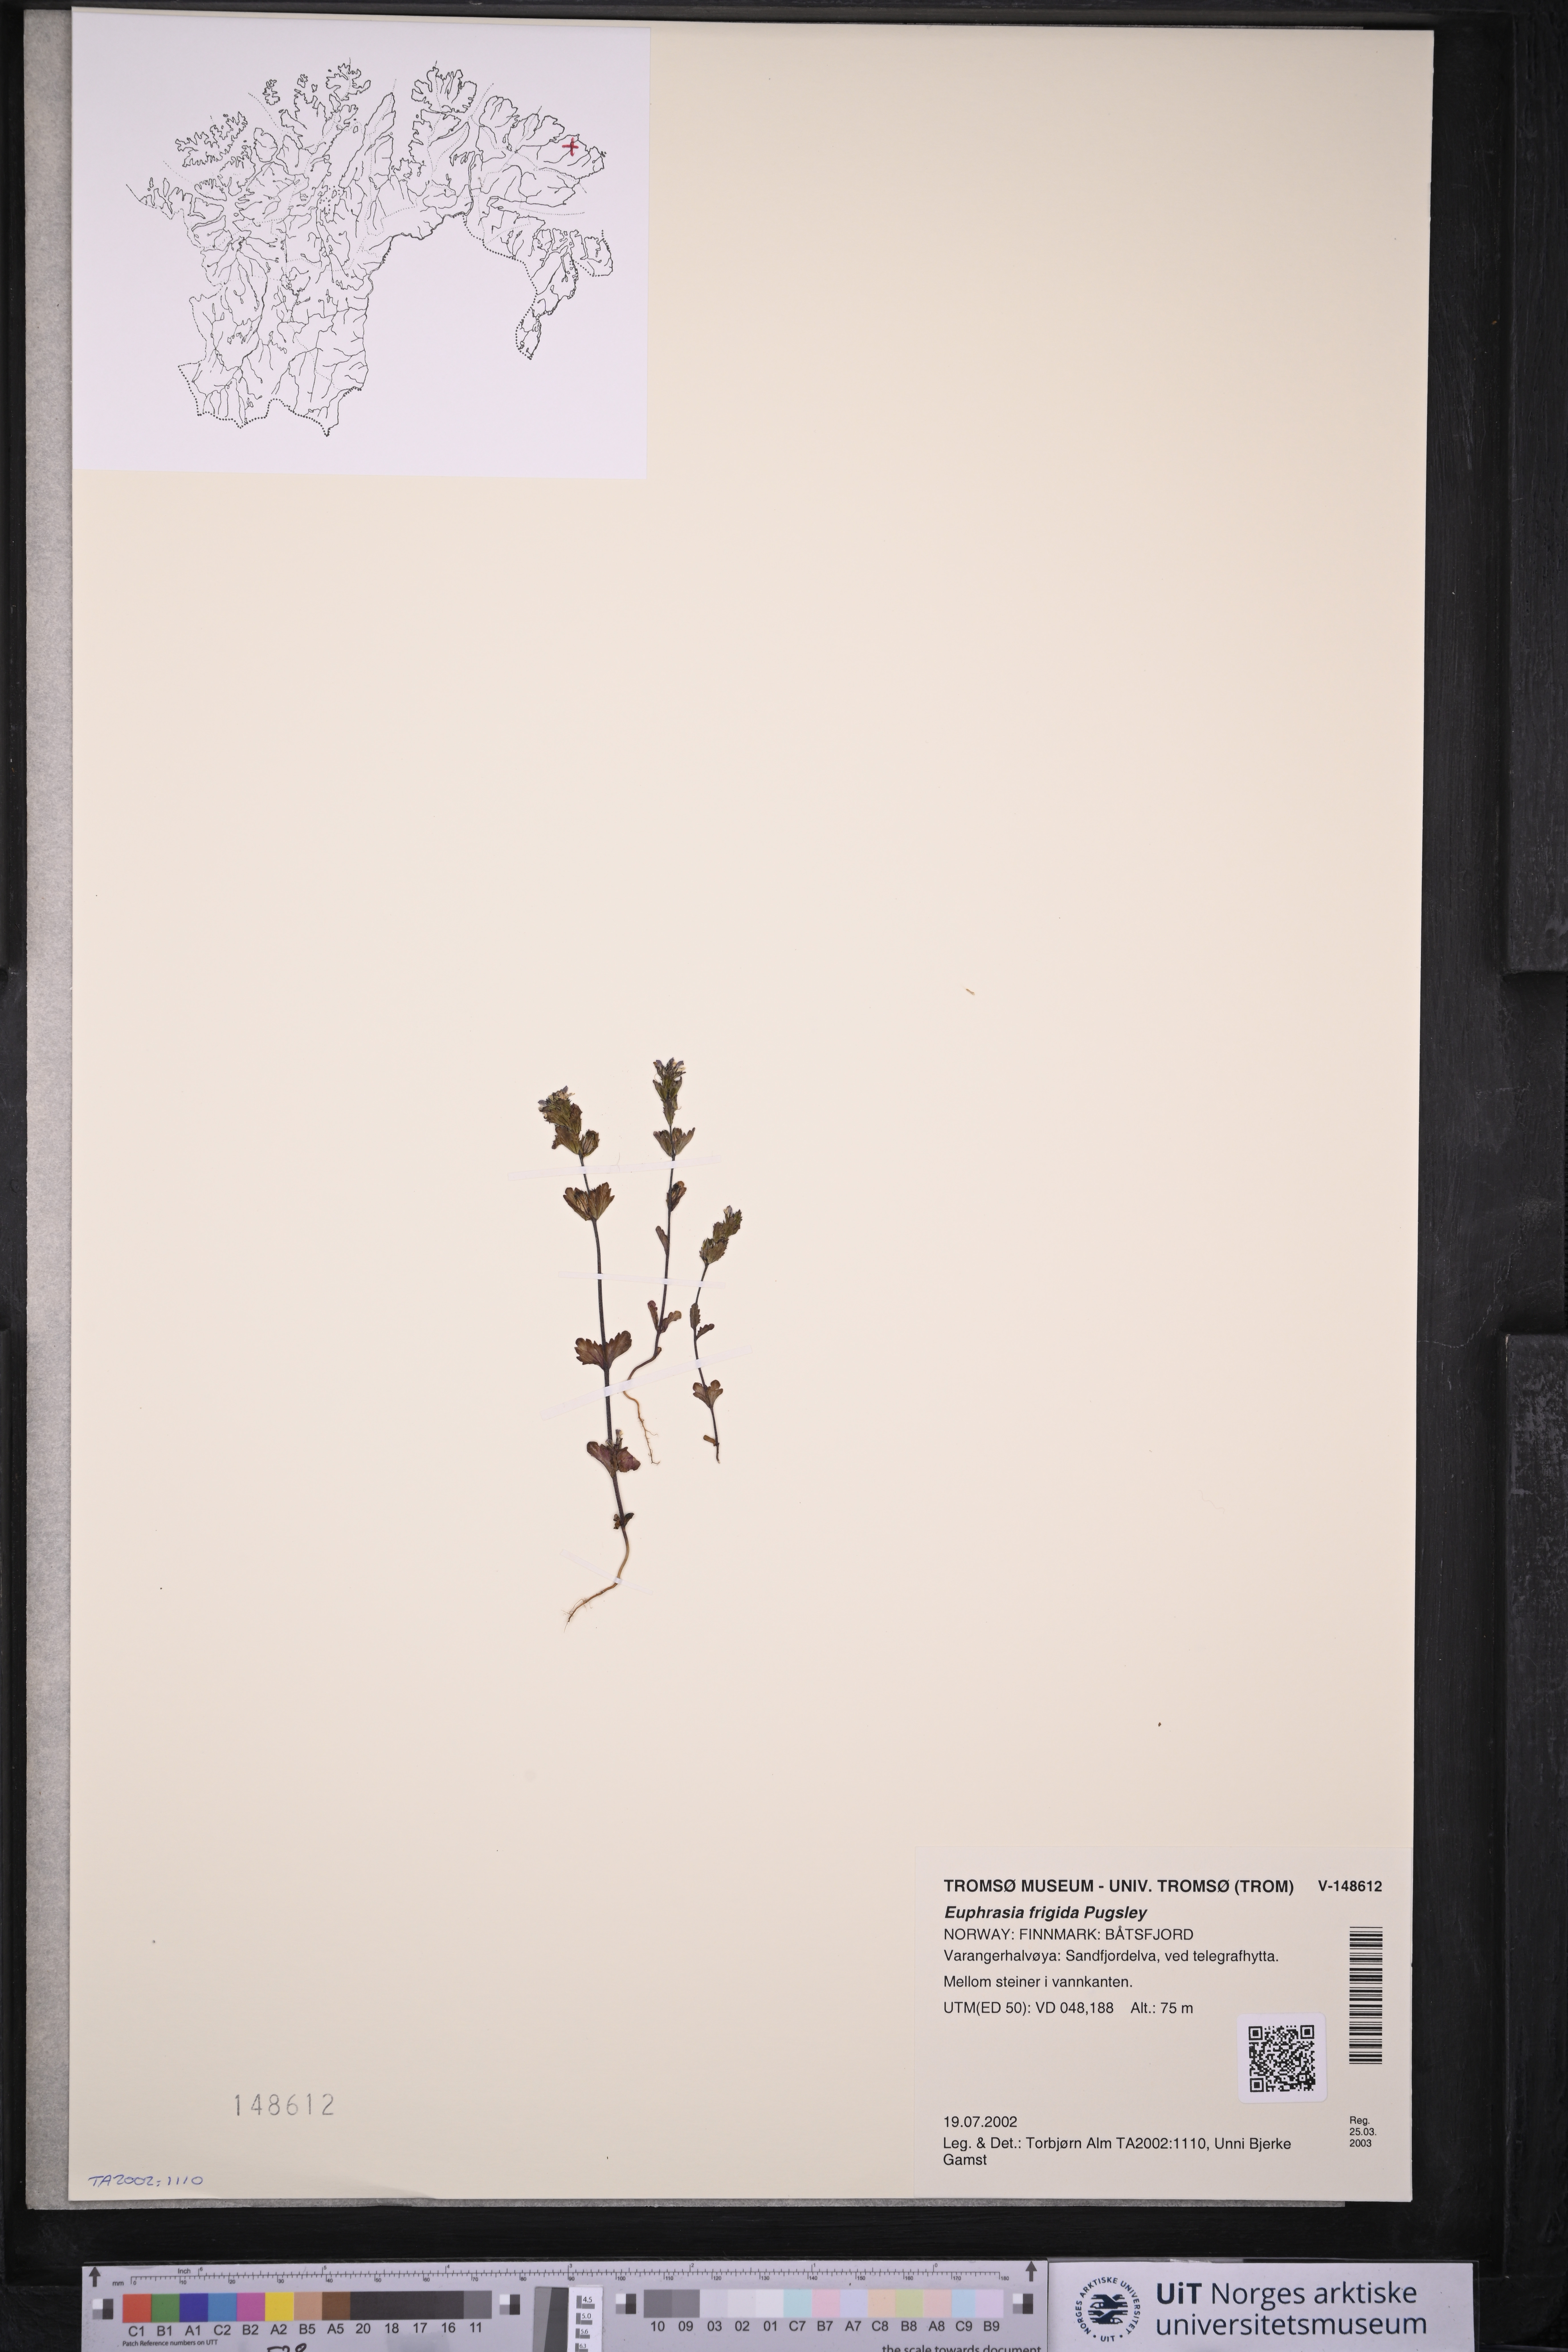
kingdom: Plantae
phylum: Tracheophyta
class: Magnoliopsida
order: Lamiales
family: Orobanchaceae
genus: Euphrasia
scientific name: Euphrasia frigida
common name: An eyebright
